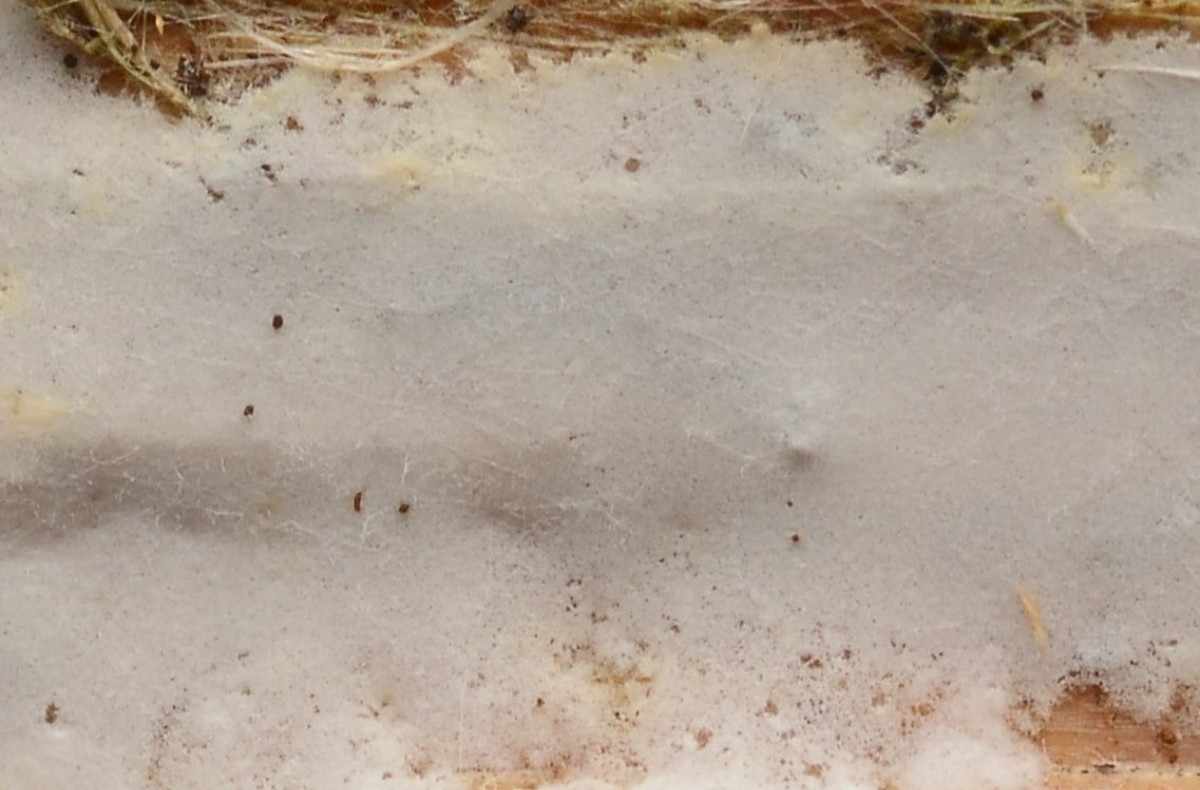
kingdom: Fungi
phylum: Basidiomycota
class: Agaricomycetes
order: Atheliales
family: Atheliaceae
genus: Athelia
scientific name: Athelia acrospora
